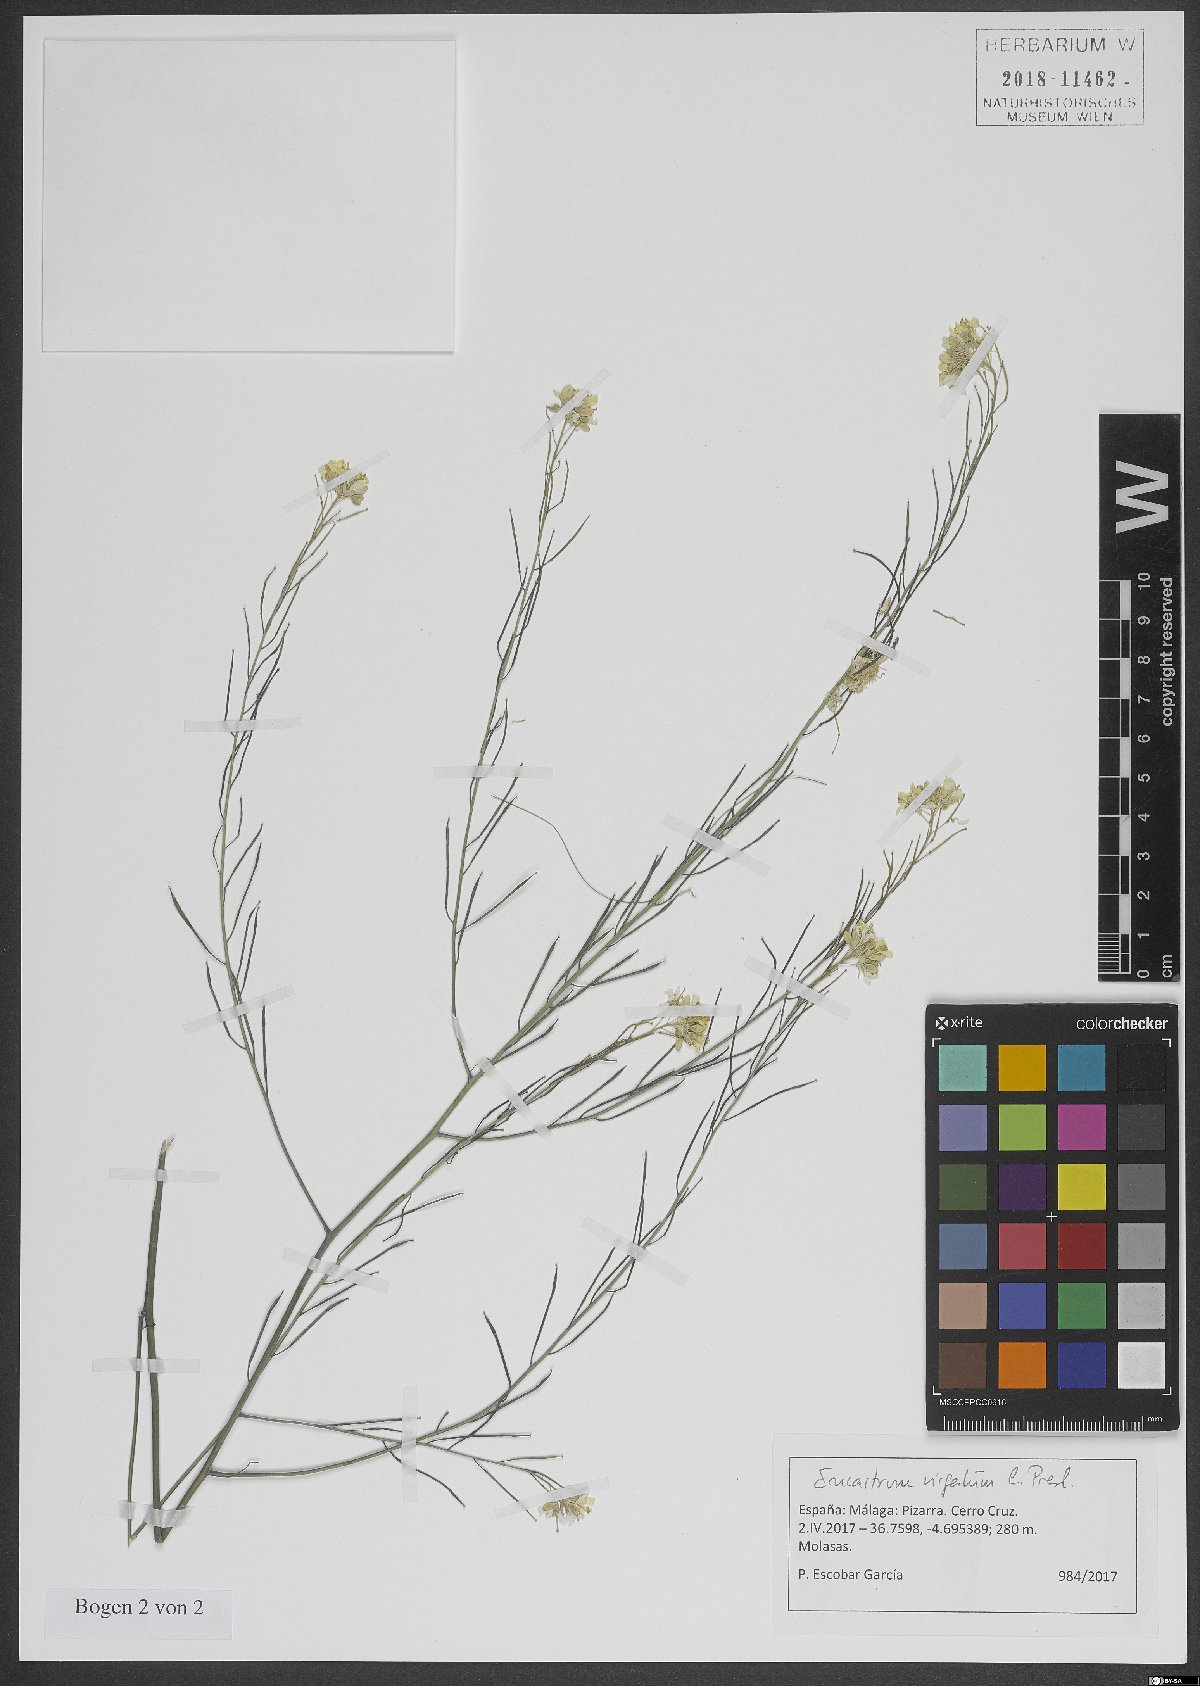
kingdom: Plantae
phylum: Tracheophyta
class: Magnoliopsida
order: Brassicales
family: Brassicaceae
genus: Erucastrum
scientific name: Erucastrum virgatum
